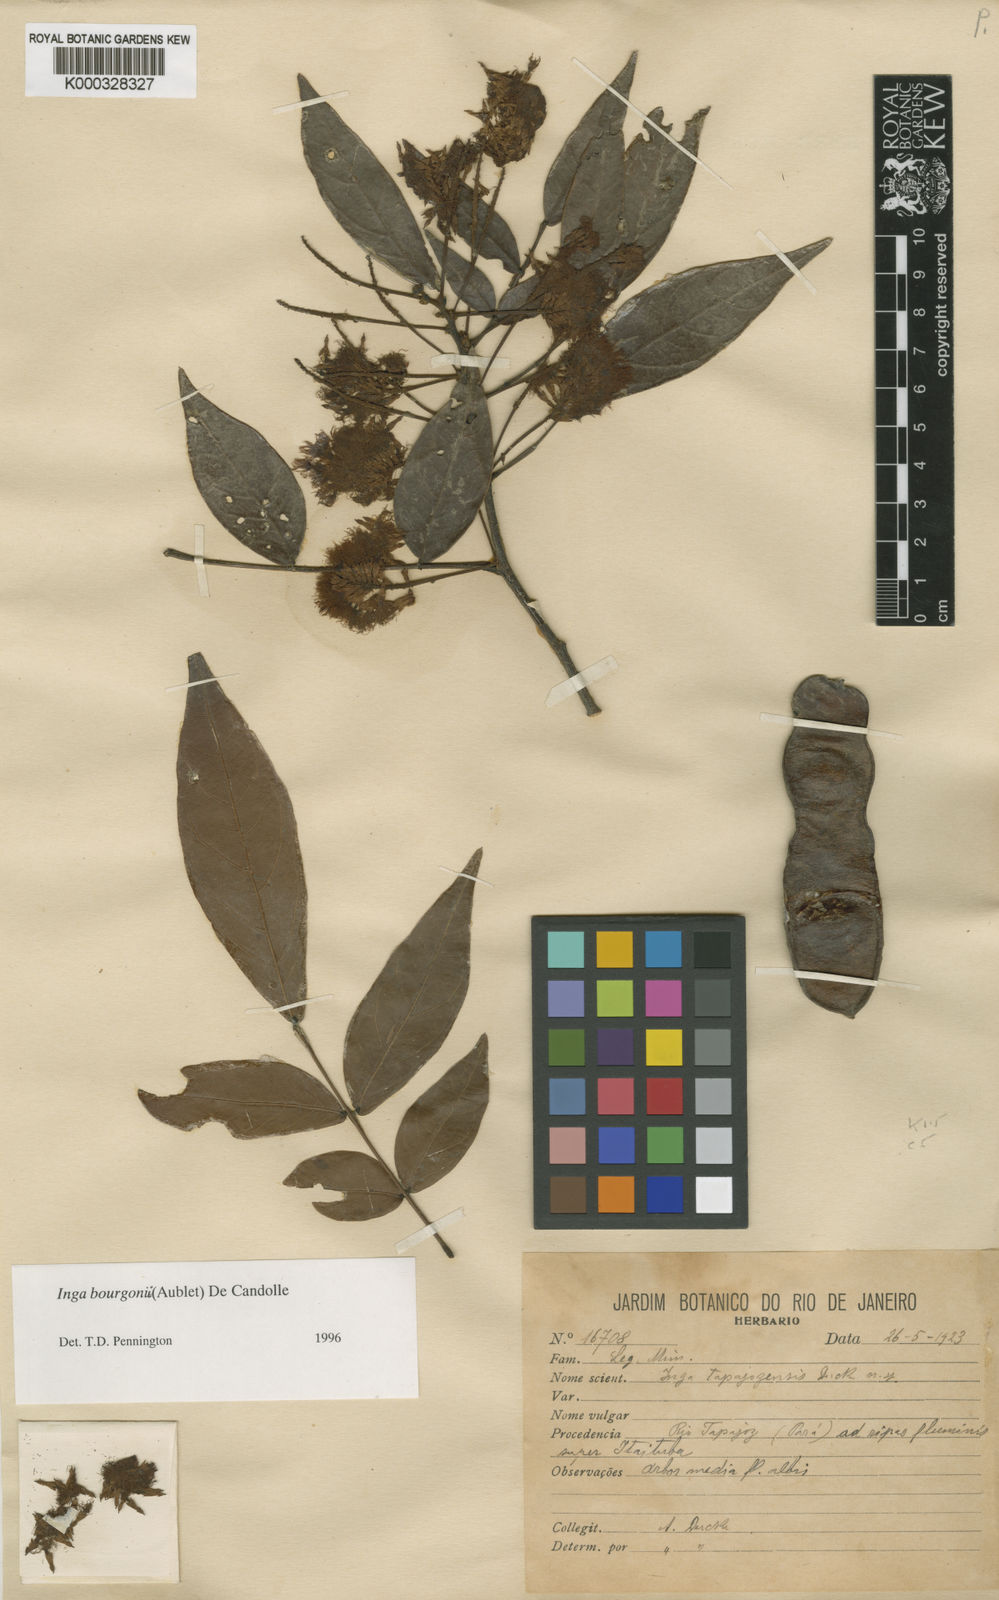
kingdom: Plantae
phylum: Tracheophyta
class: Magnoliopsida
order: Fabales
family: Fabaceae
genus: Inga
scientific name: Inga bourgoni
